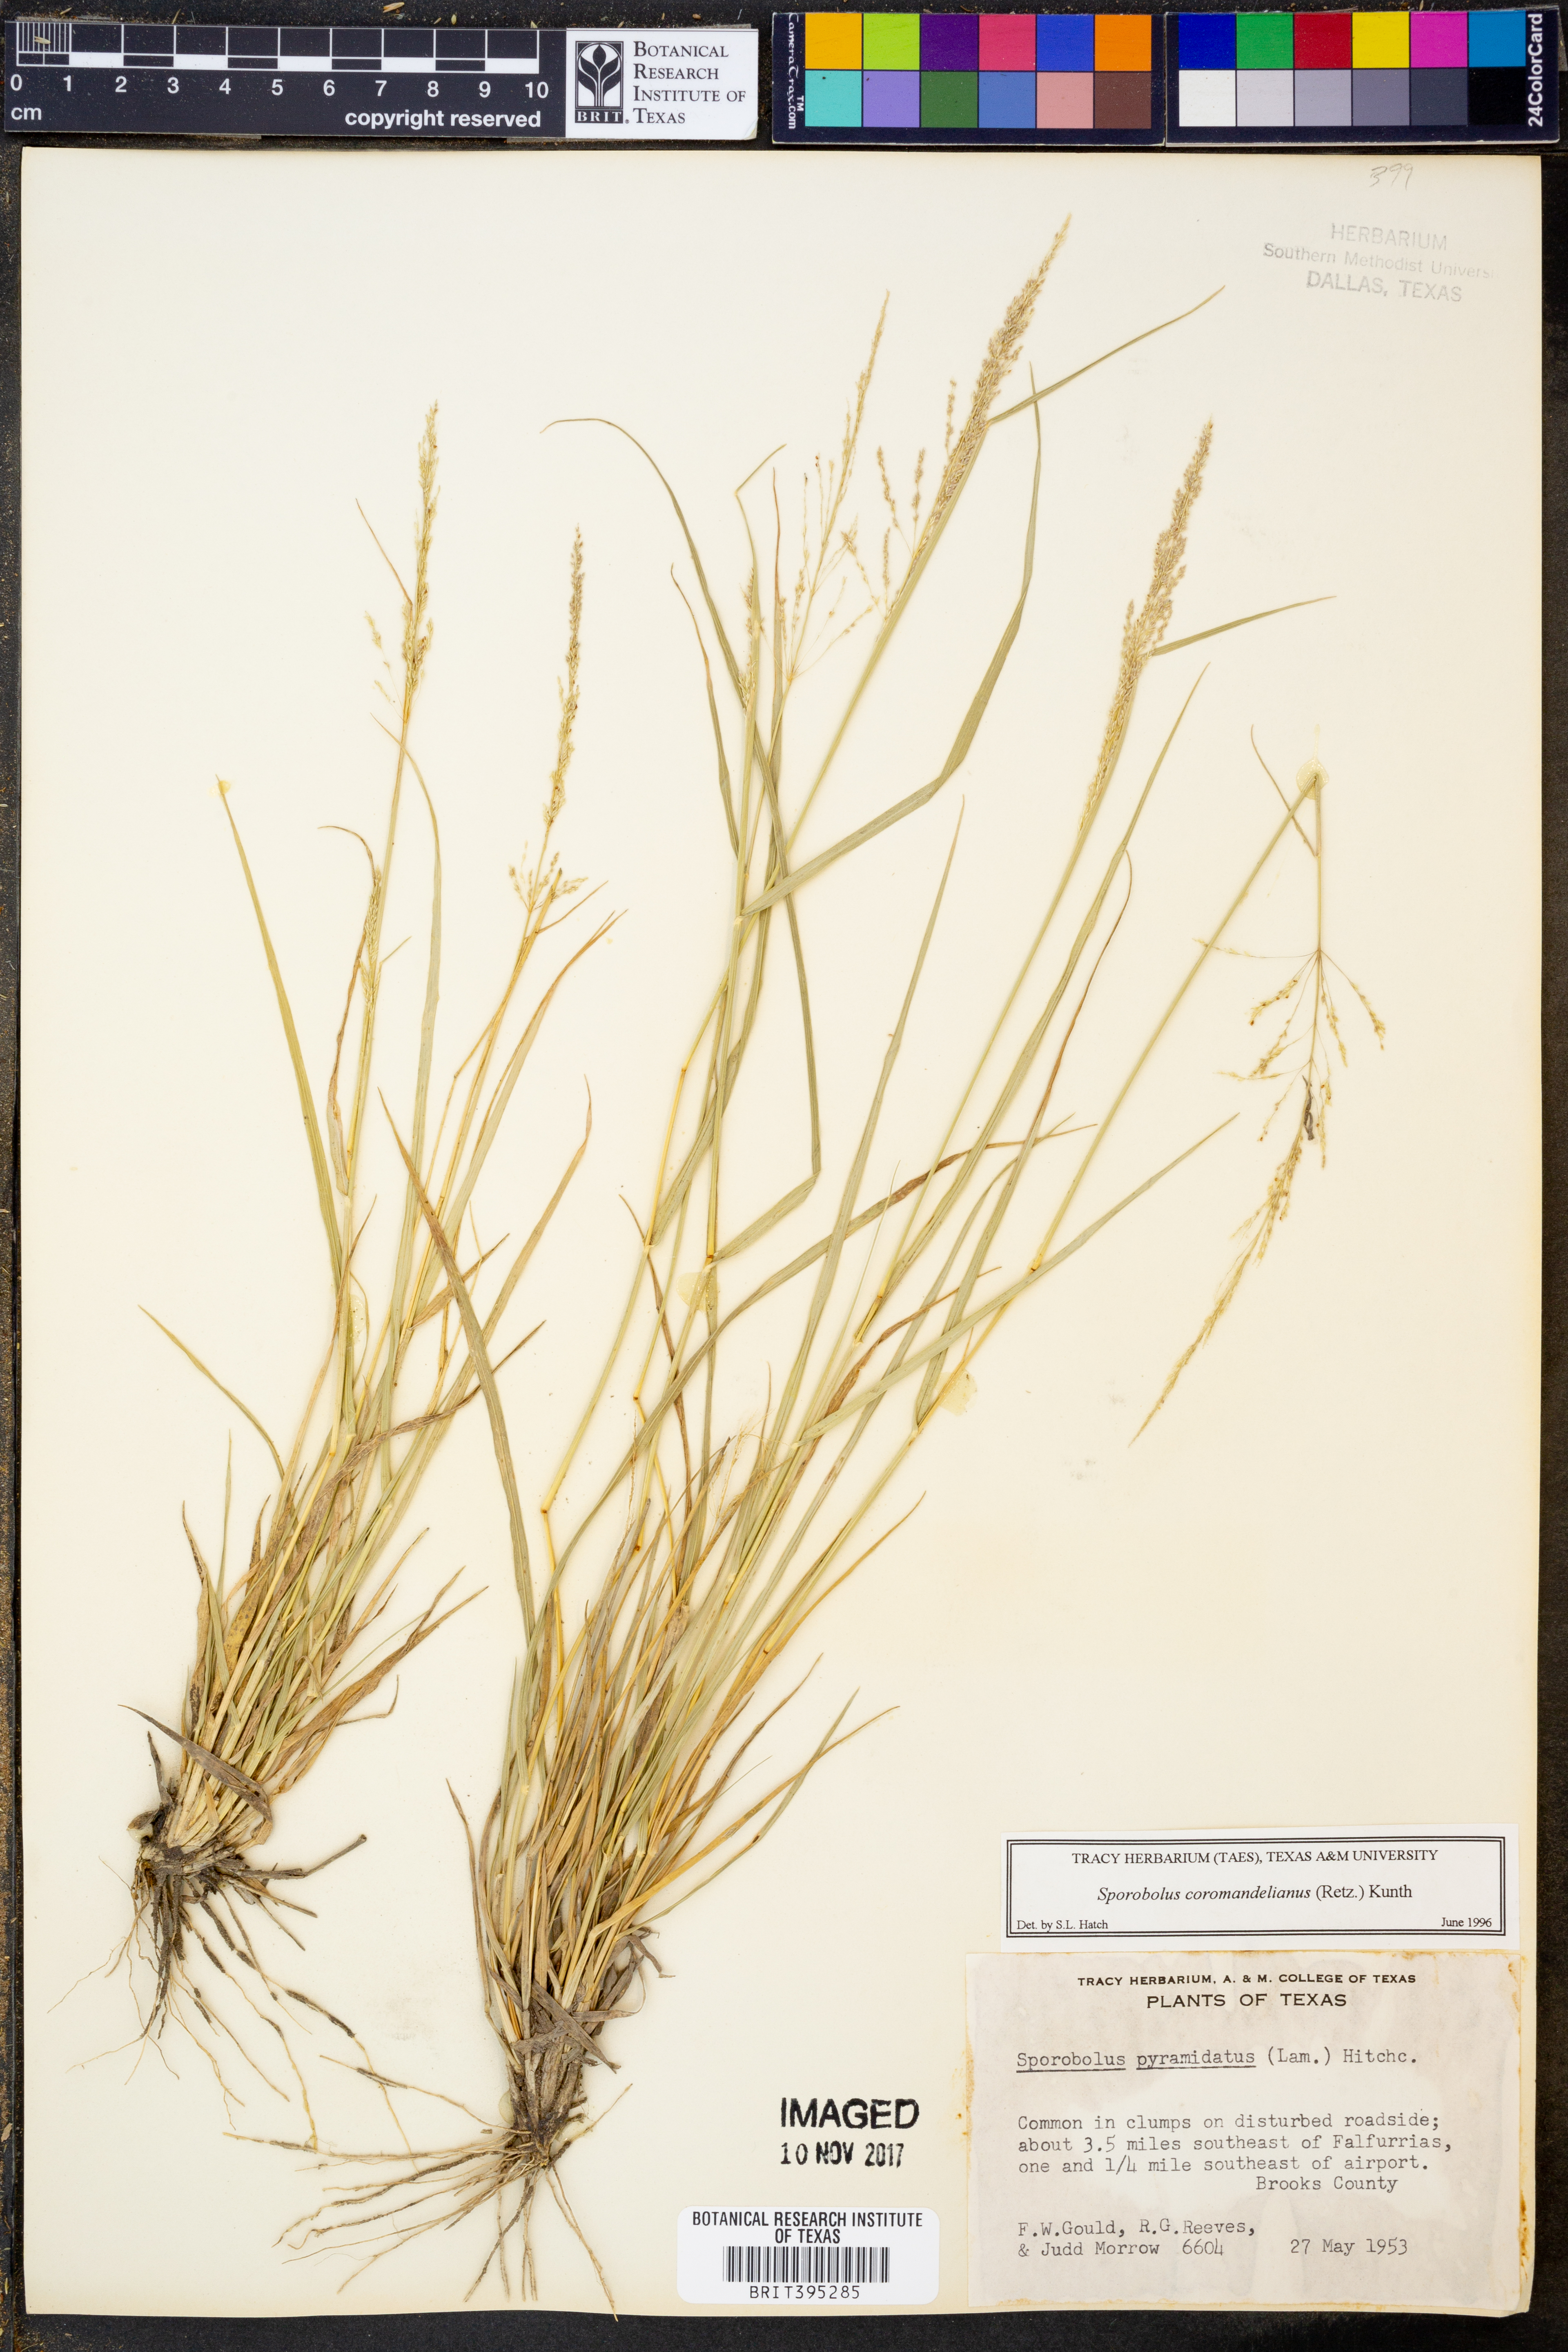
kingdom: Plantae
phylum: Tracheophyta
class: Liliopsida
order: Poales
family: Poaceae
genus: Sporobolus
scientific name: Sporobolus coromandelianus
